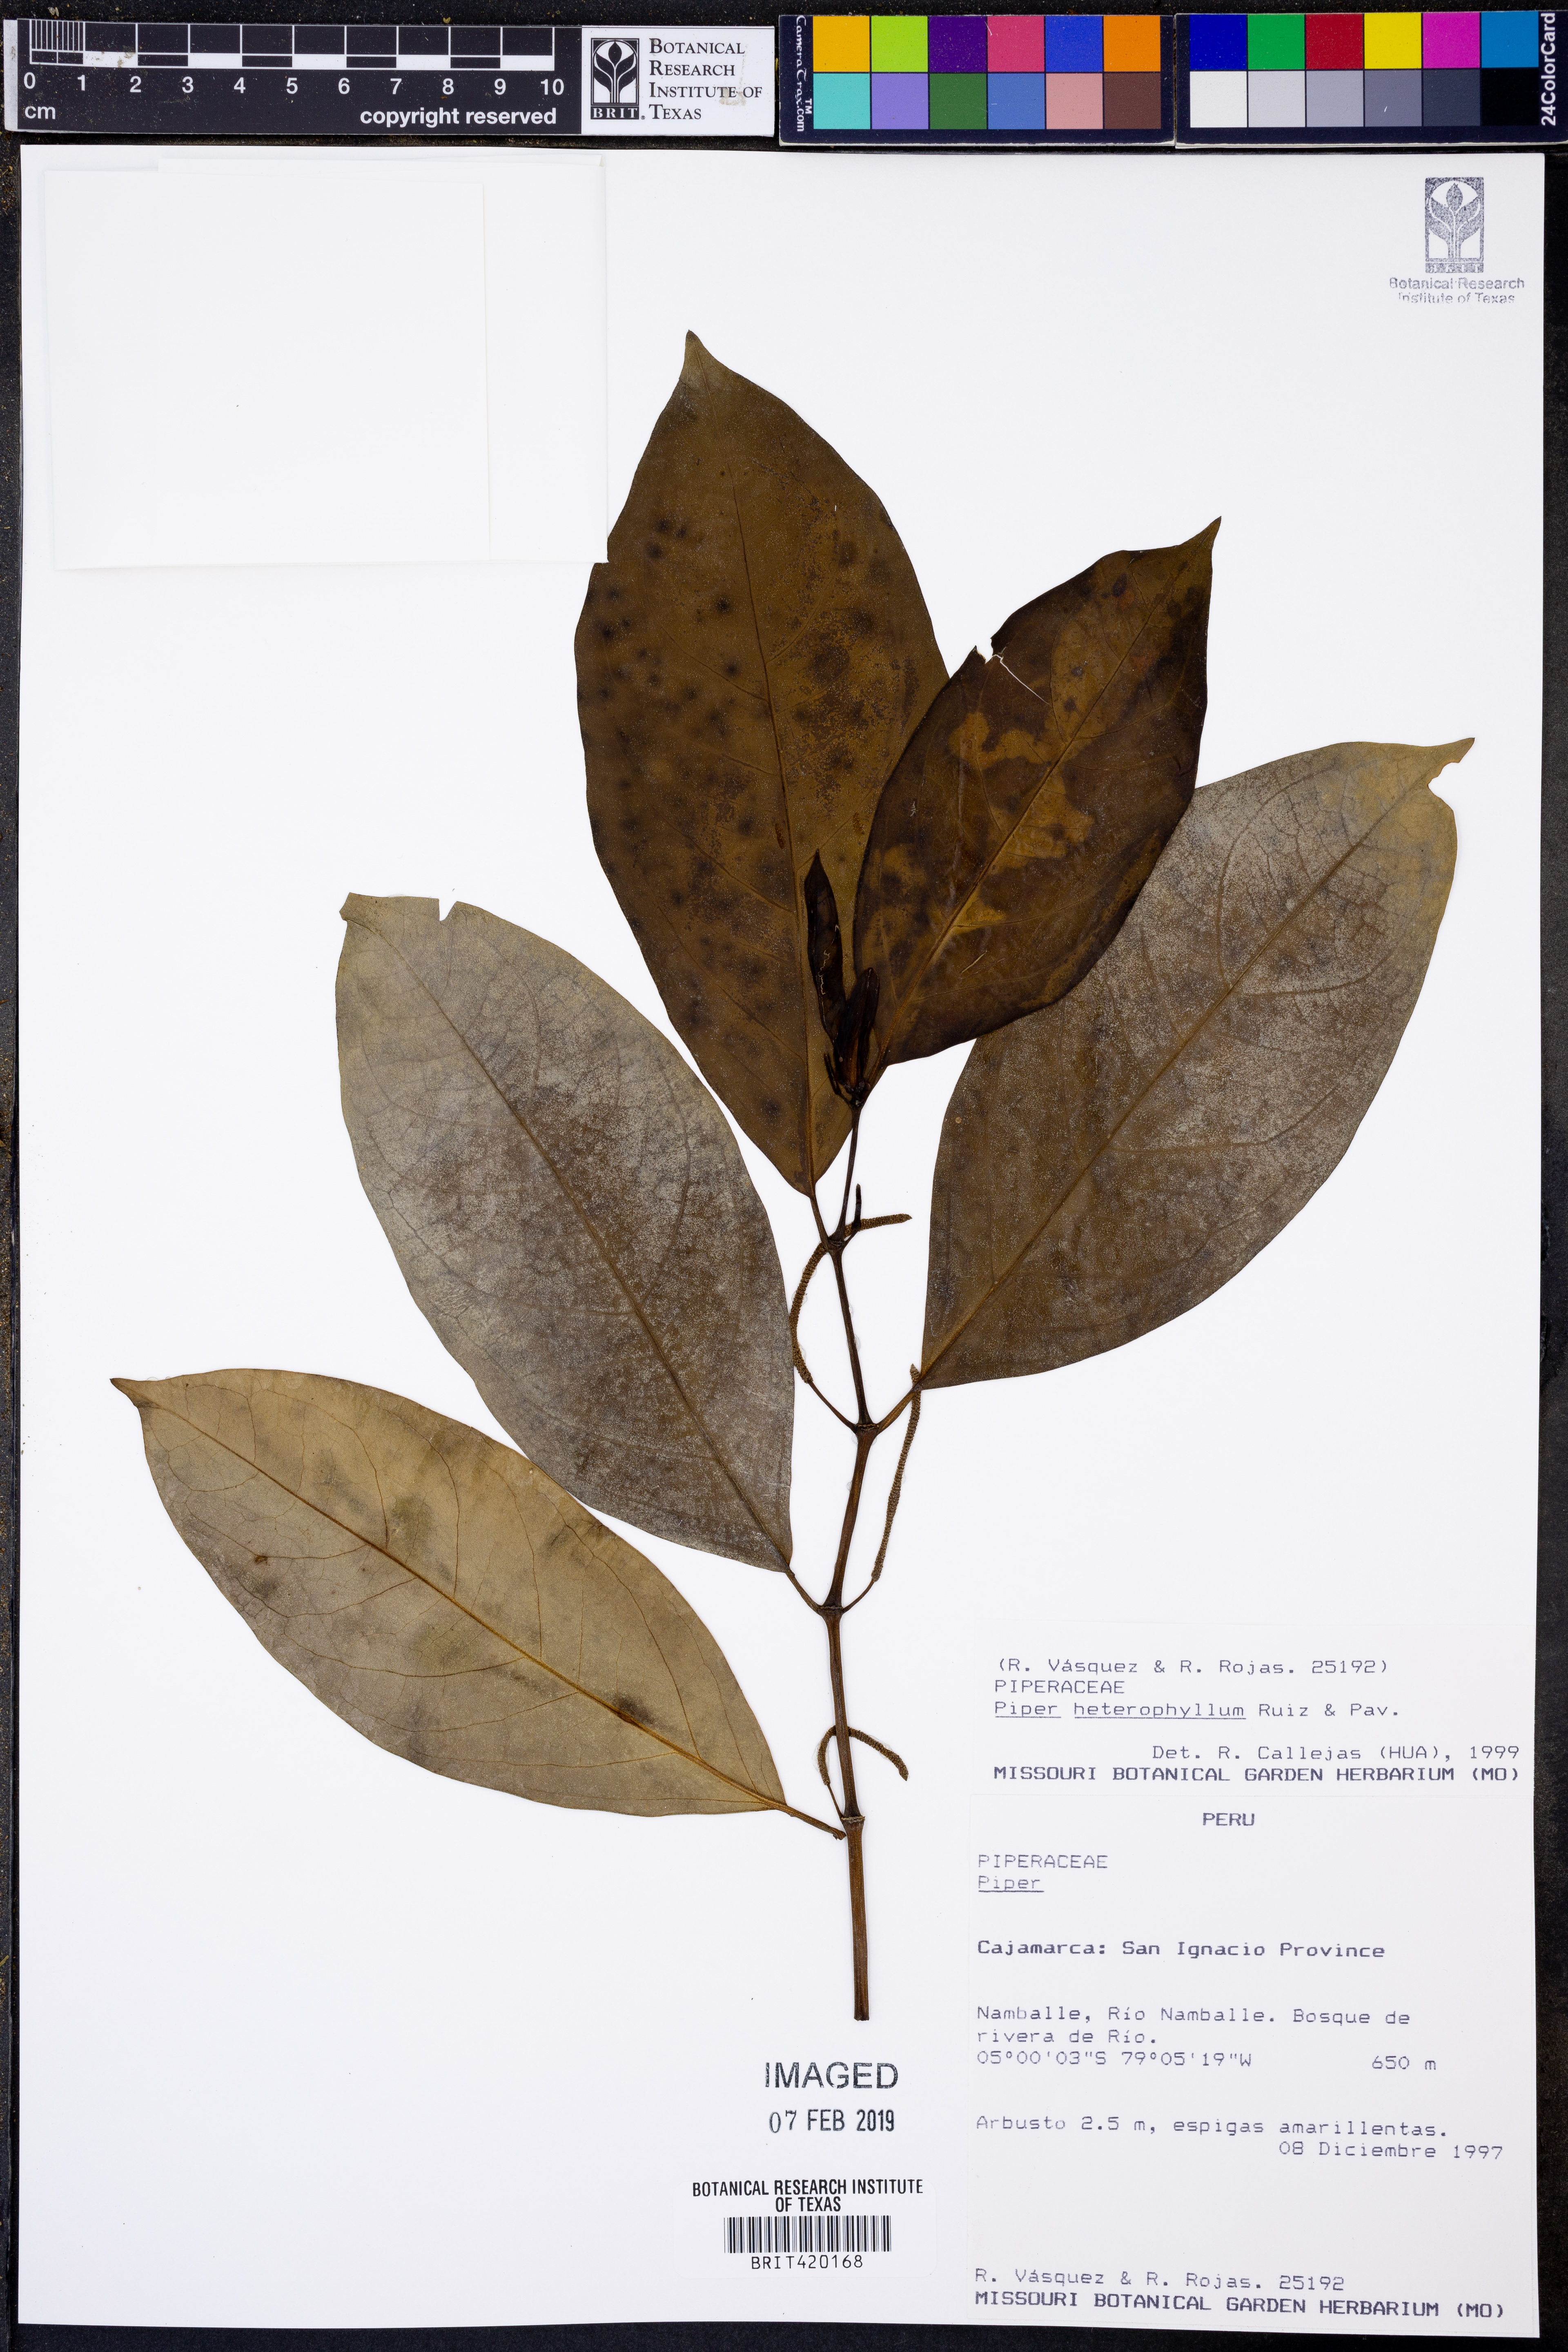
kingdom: Plantae
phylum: Tracheophyta
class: Magnoliopsida
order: Piperales
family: Piperaceae
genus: Piper
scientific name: Piper heterophyllum
